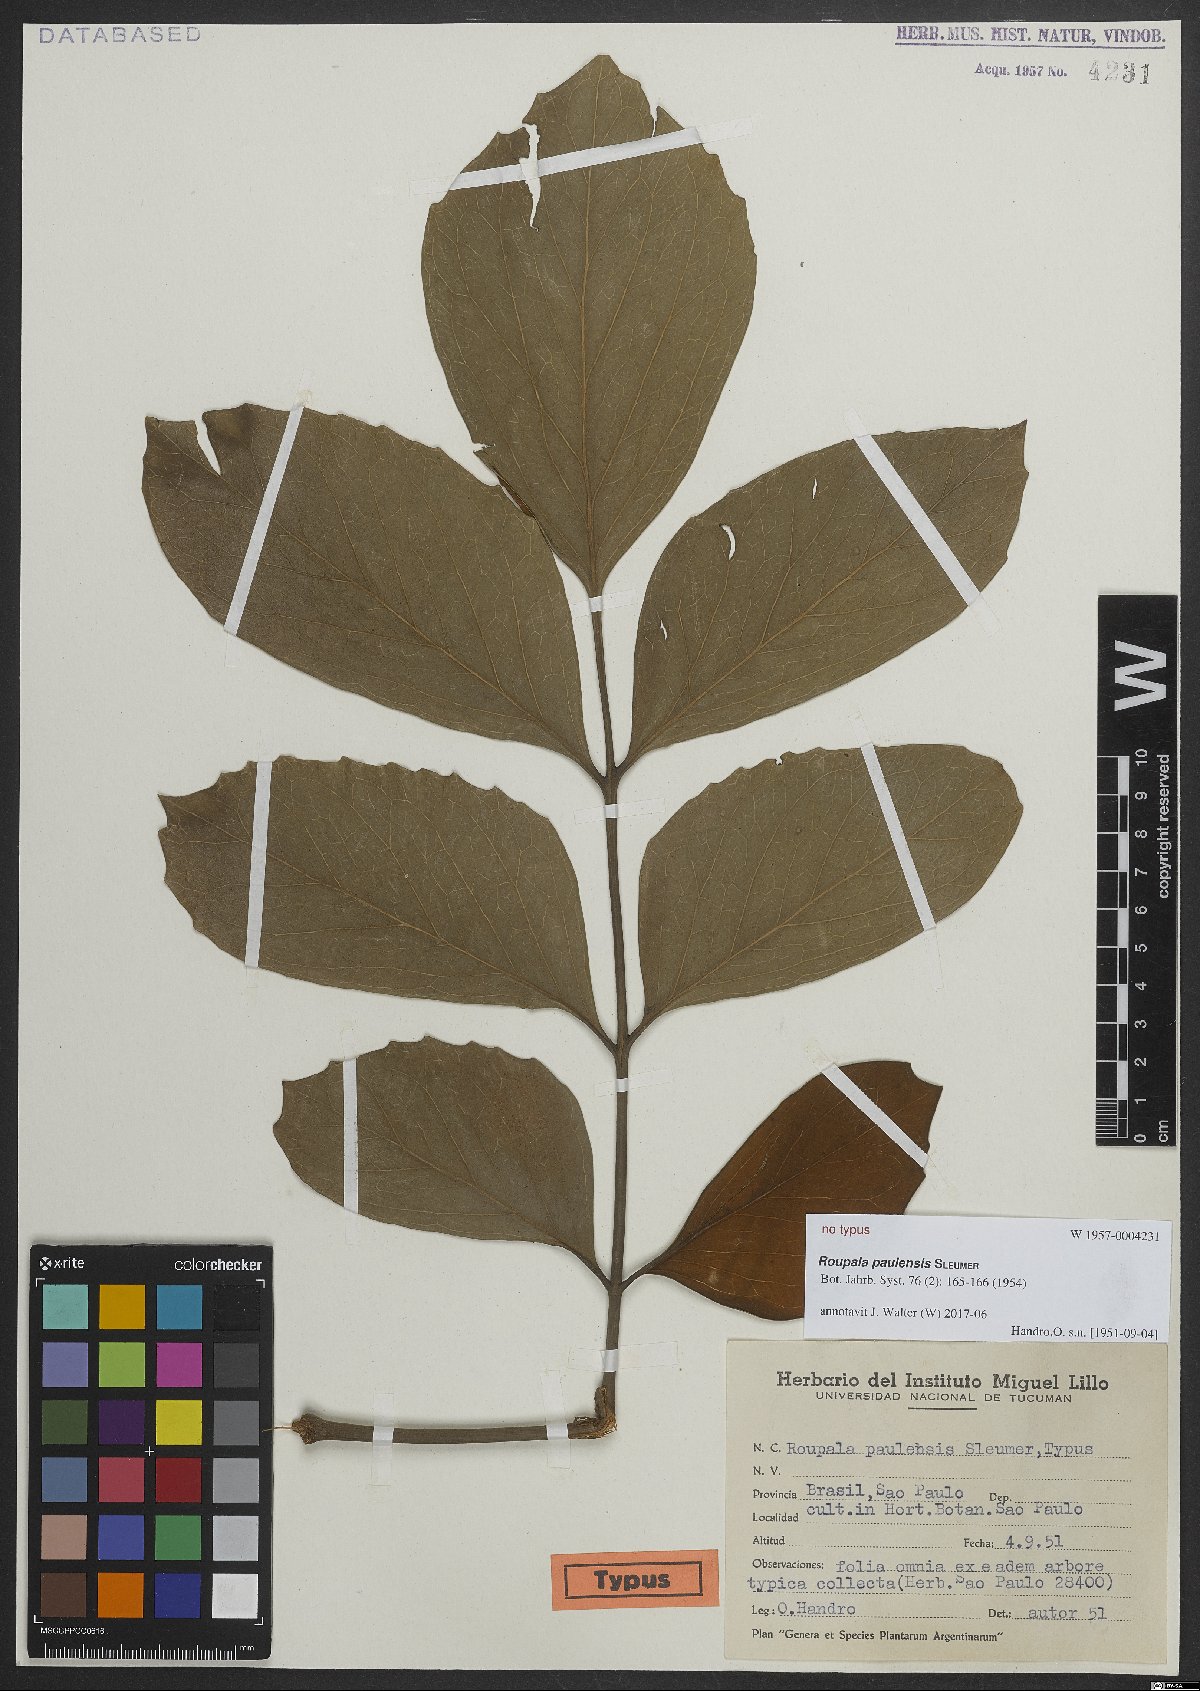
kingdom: Plantae
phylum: Tracheophyta
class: Magnoliopsida
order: Proteales
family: Proteaceae
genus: Roupala
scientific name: Roupala paulensis
